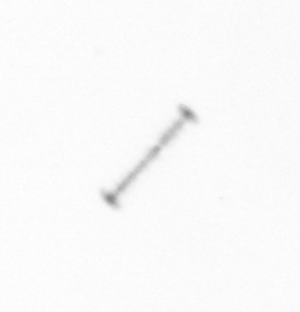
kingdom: Chromista
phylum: Ochrophyta
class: Bacillariophyceae
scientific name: Bacillariophyceae
